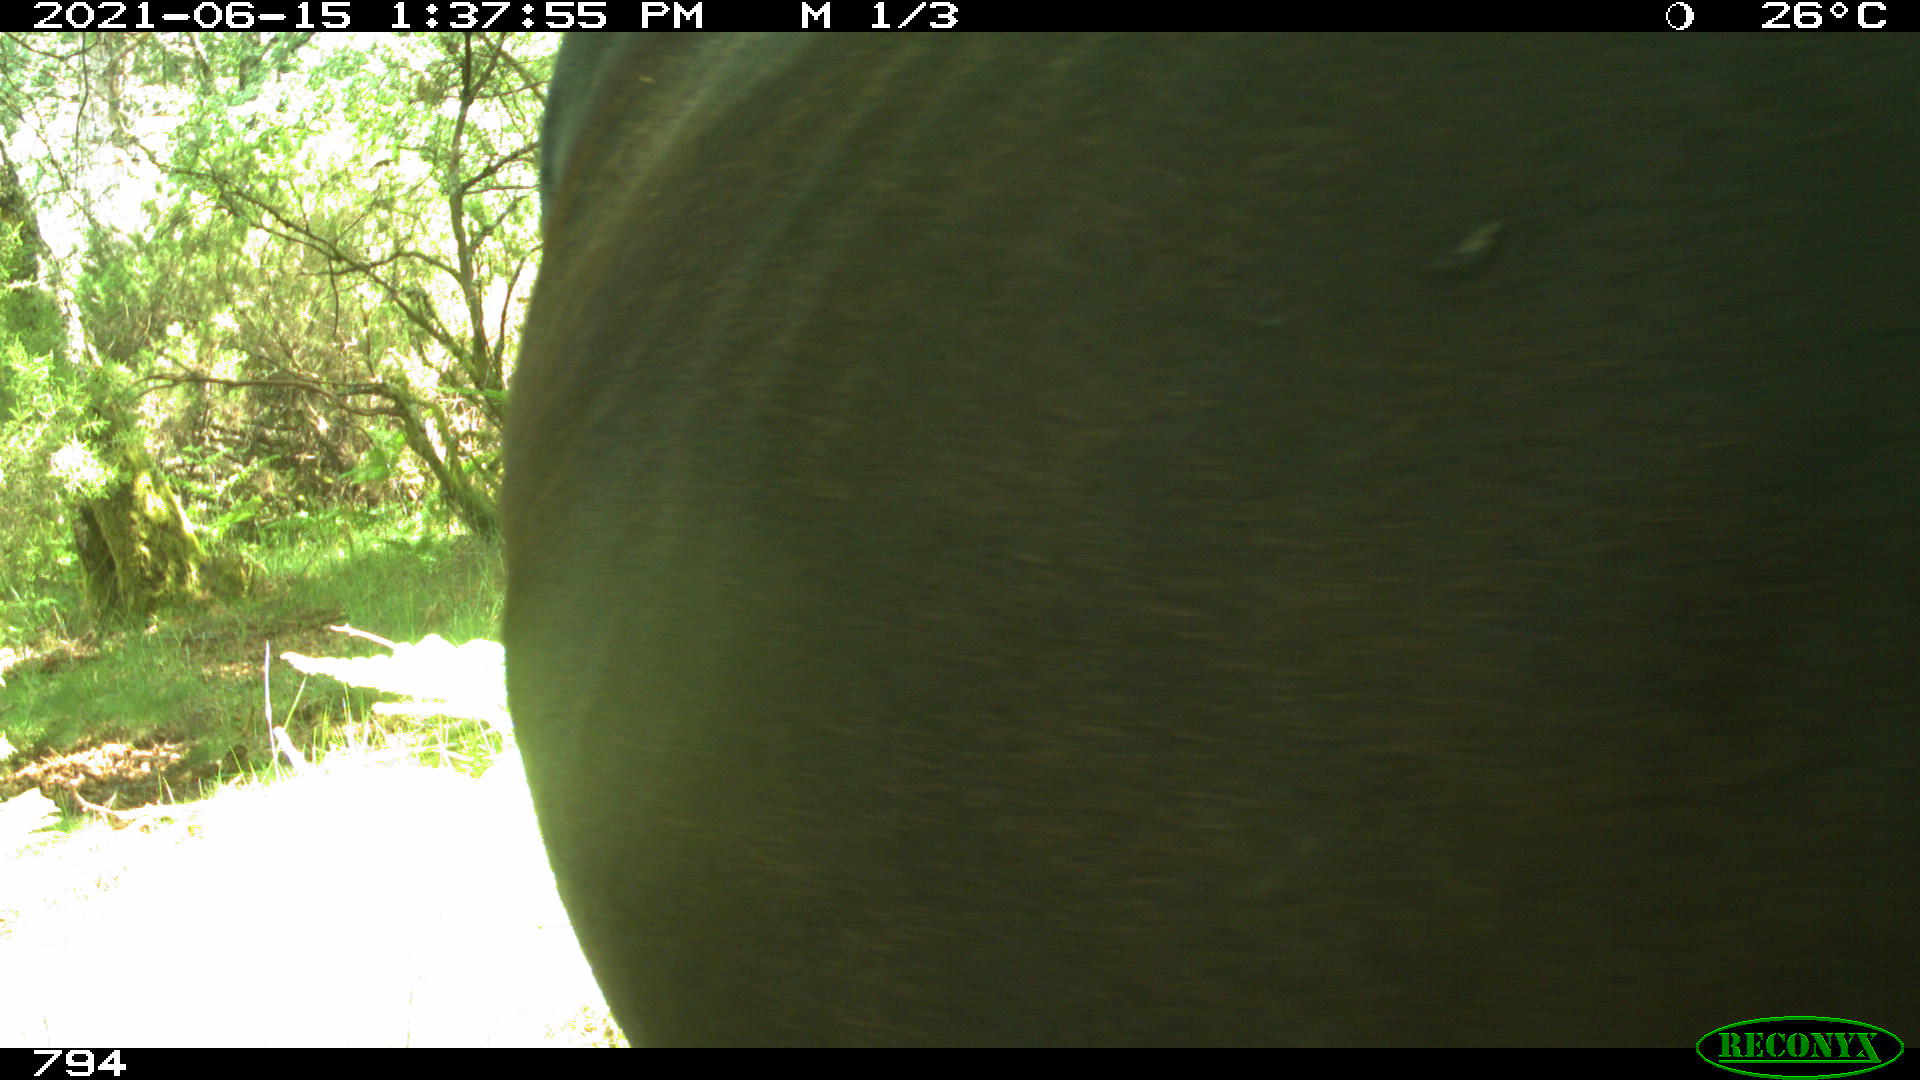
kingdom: Animalia
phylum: Chordata
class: Mammalia
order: Perissodactyla
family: Equidae
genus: Equus
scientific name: Equus caballus
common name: Horse
